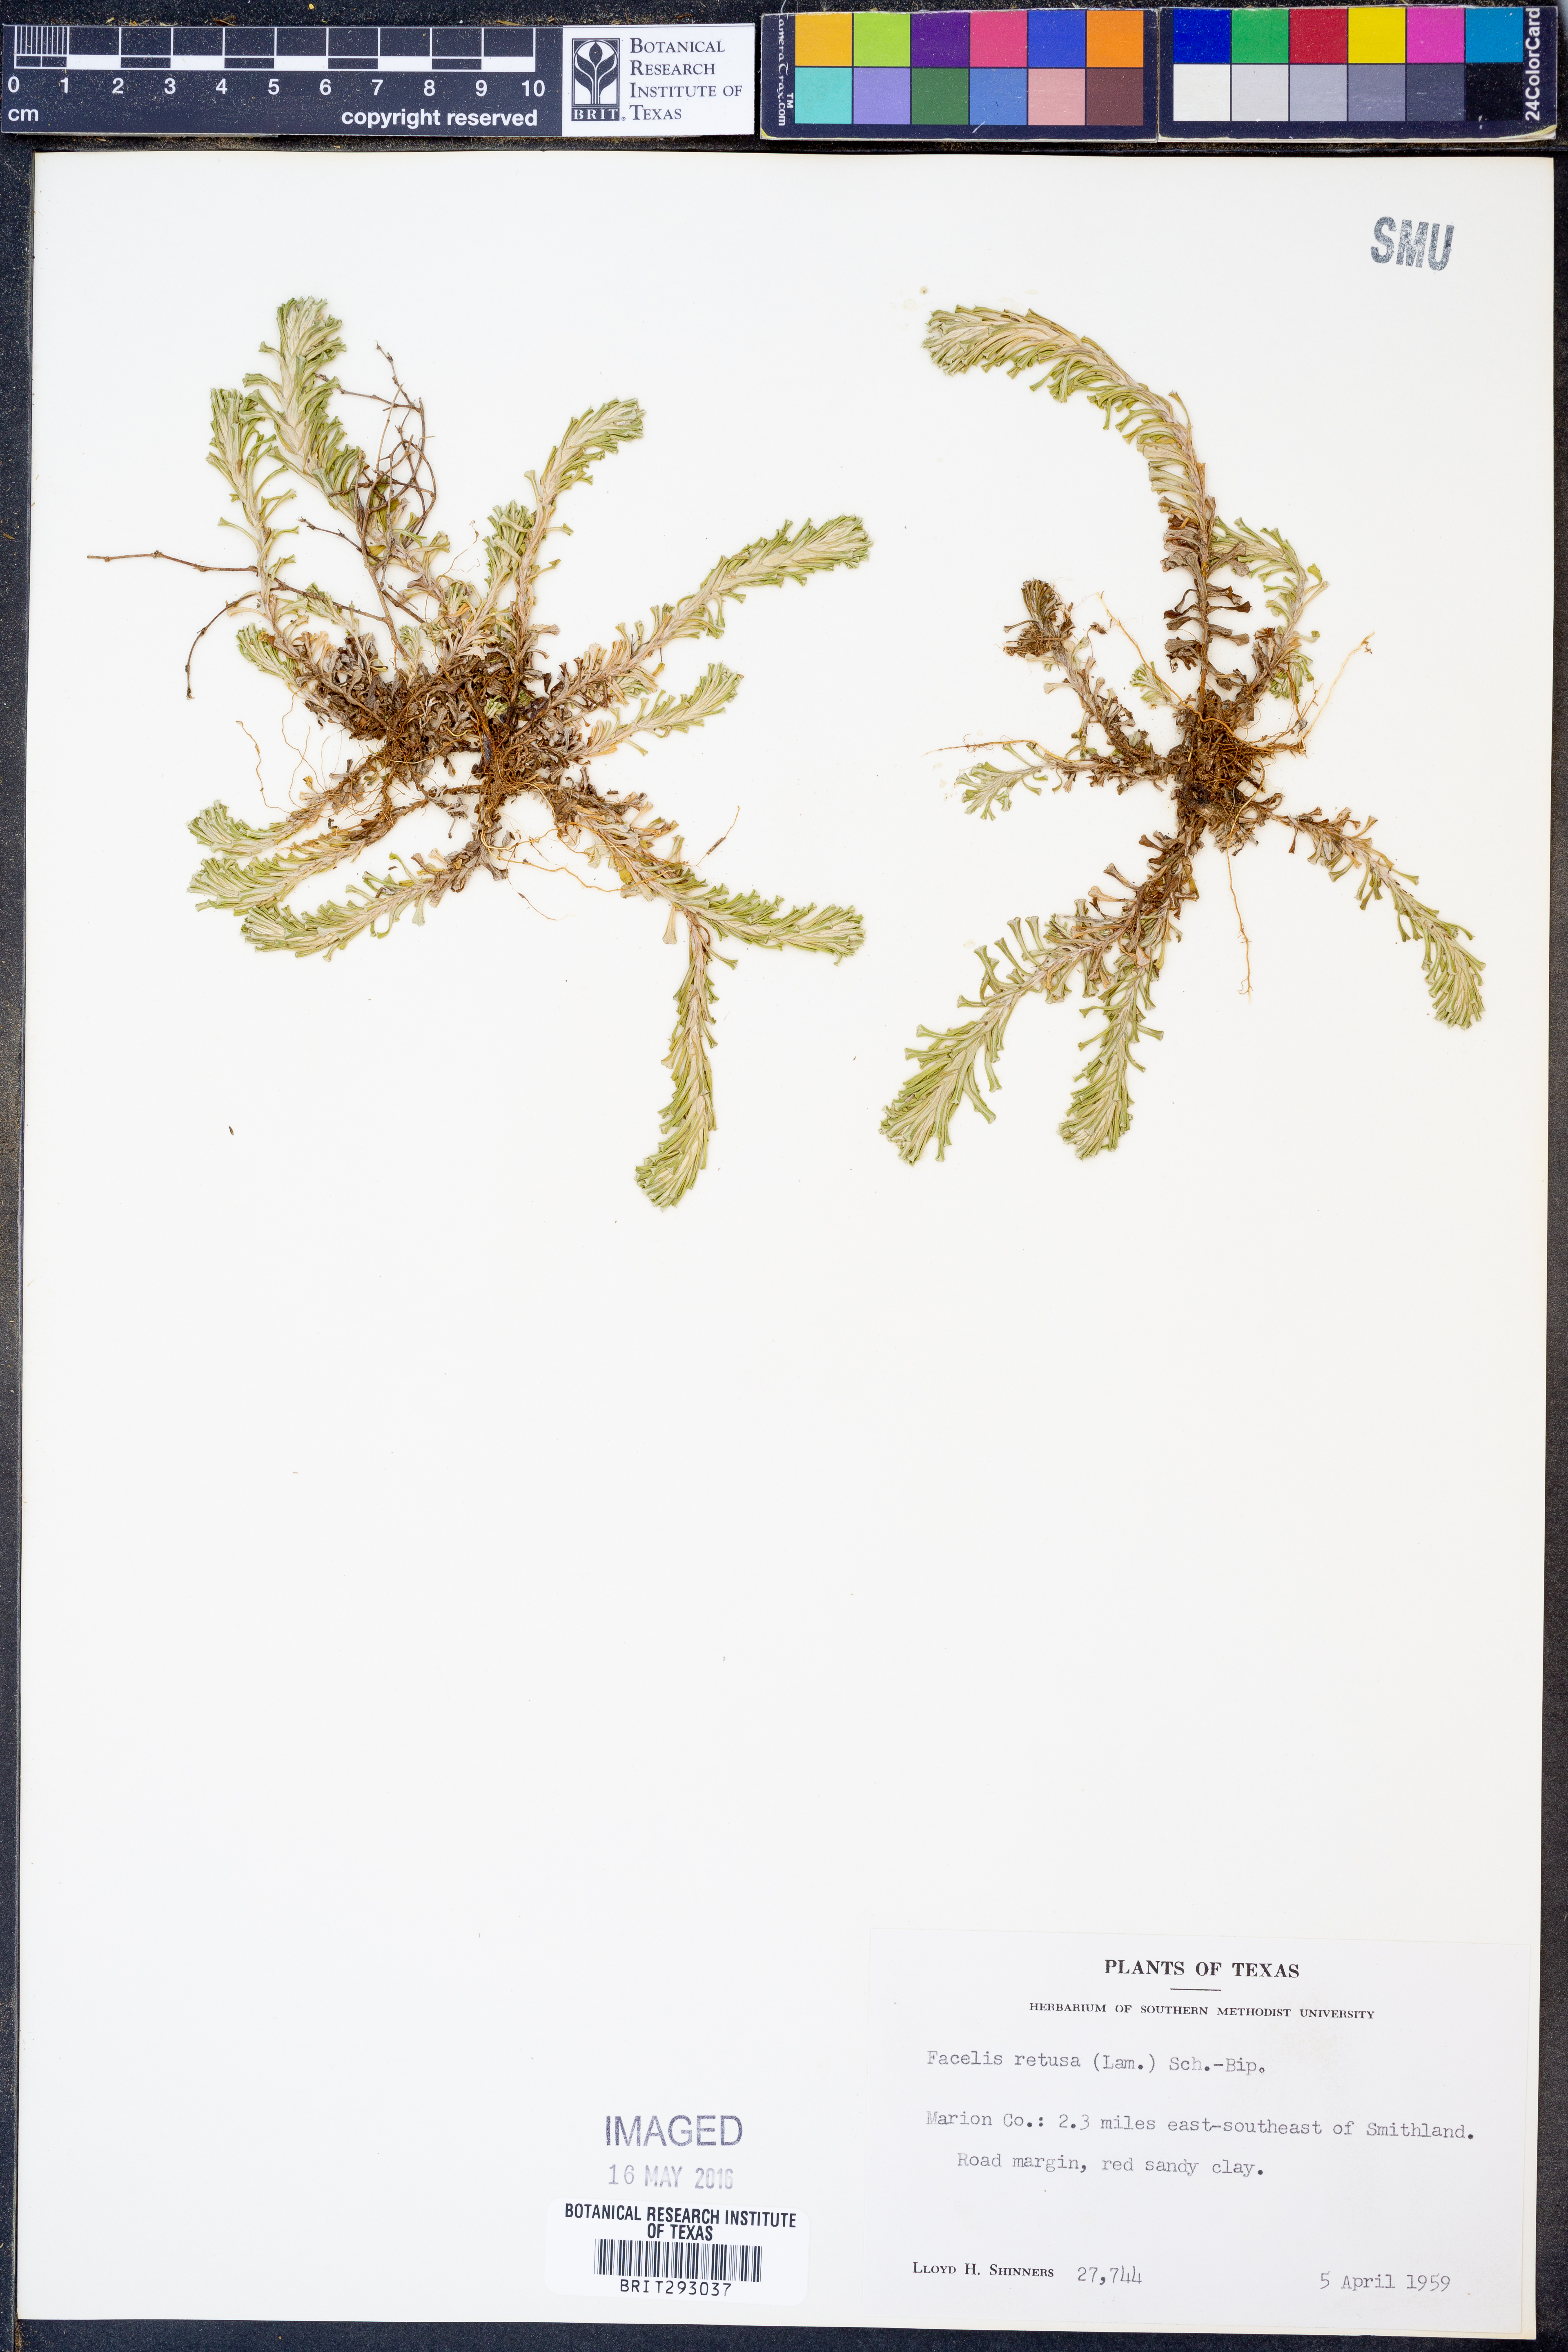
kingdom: Plantae
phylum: Tracheophyta
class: Magnoliopsida
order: Asterales
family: Asteraceae
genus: Facelis
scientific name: Facelis retusa
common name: Annual trampweed
